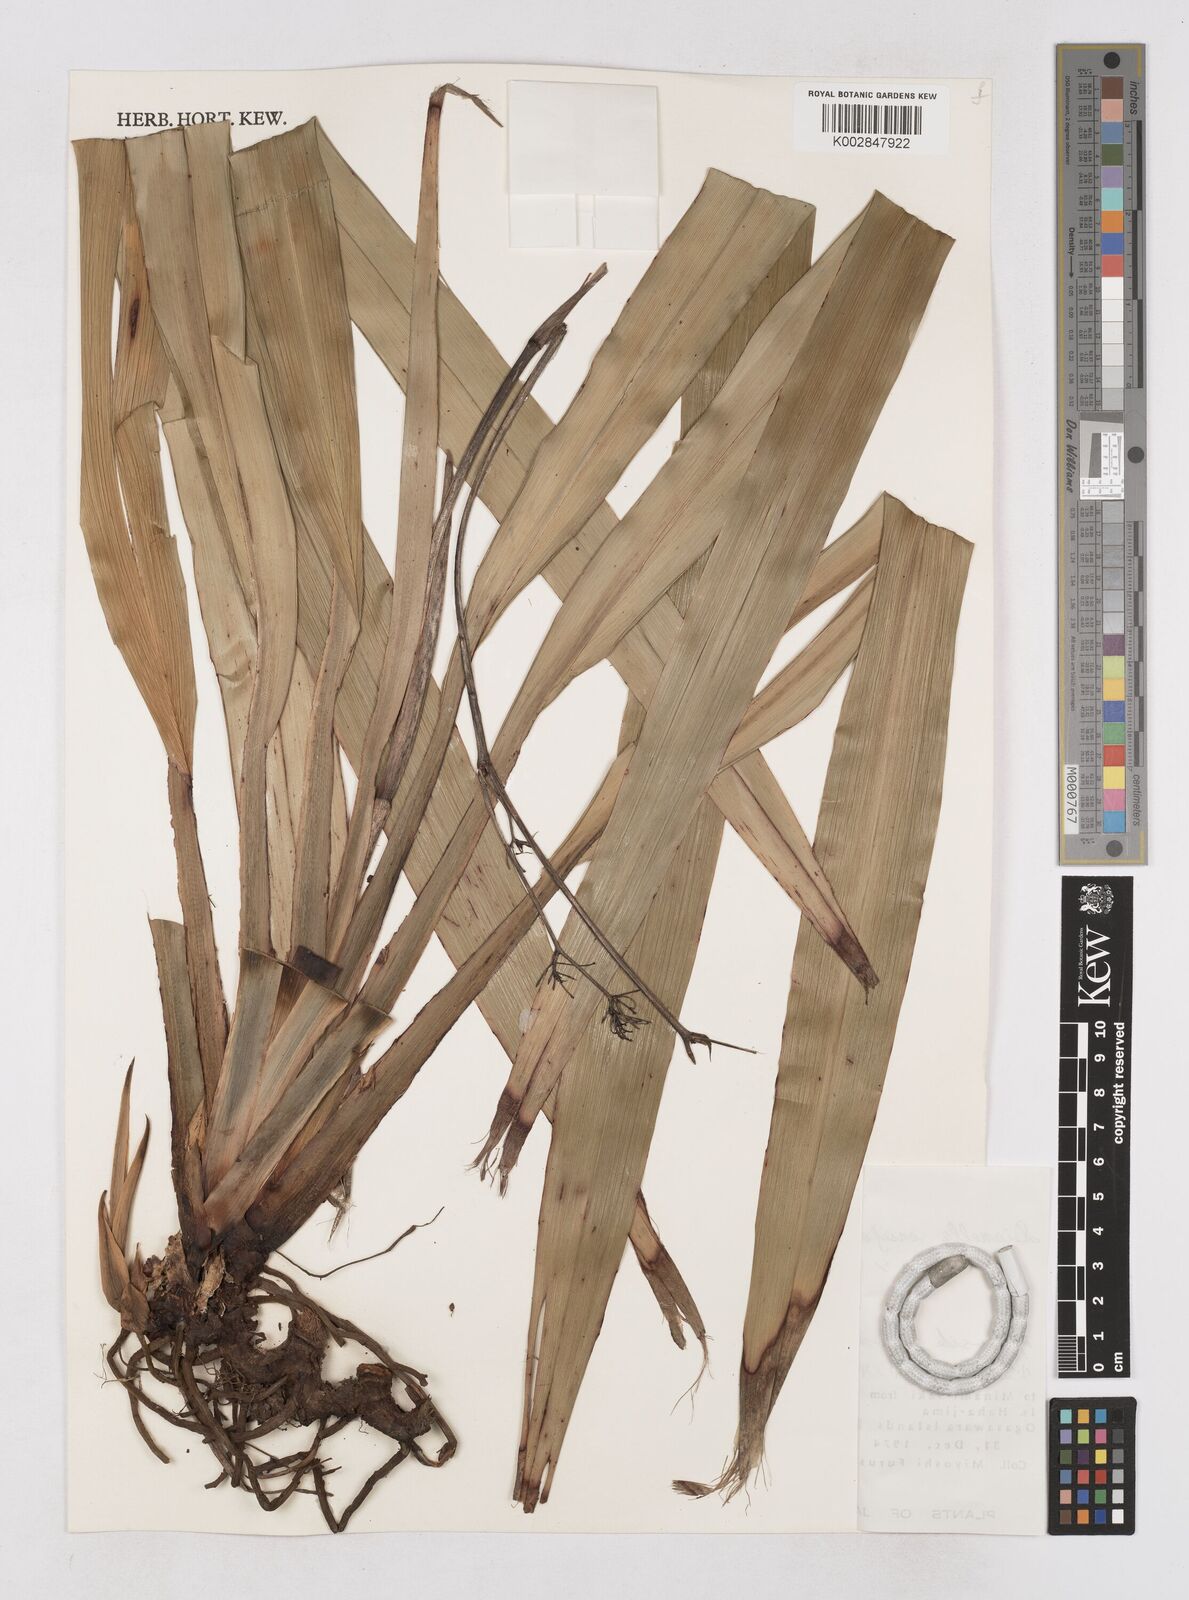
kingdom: Plantae
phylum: Tracheophyta
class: Liliopsida
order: Asparagales
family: Asphodelaceae
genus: Dianella
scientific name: Dianella ensifolia
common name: New zealand lilyplant
